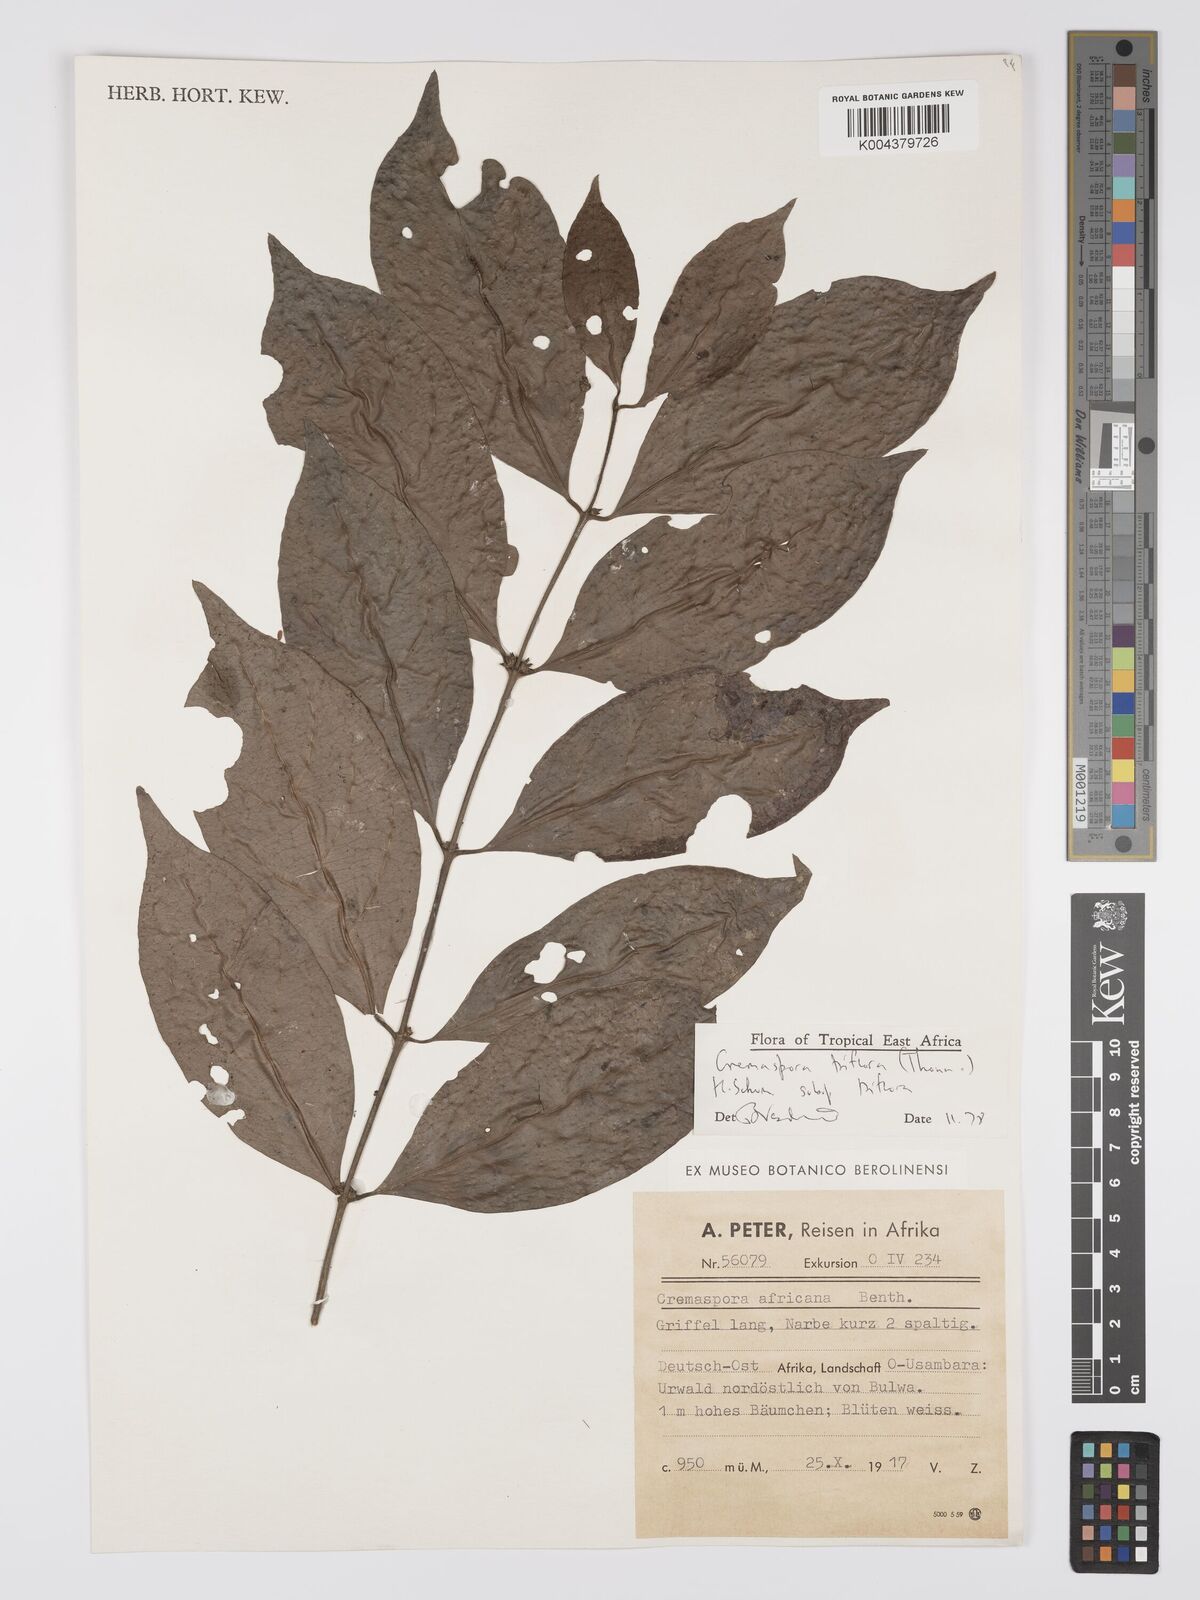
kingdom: Plantae
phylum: Tracheophyta
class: Magnoliopsida
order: Gentianales
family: Rubiaceae
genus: Cremaspora
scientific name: Cremaspora triflora
